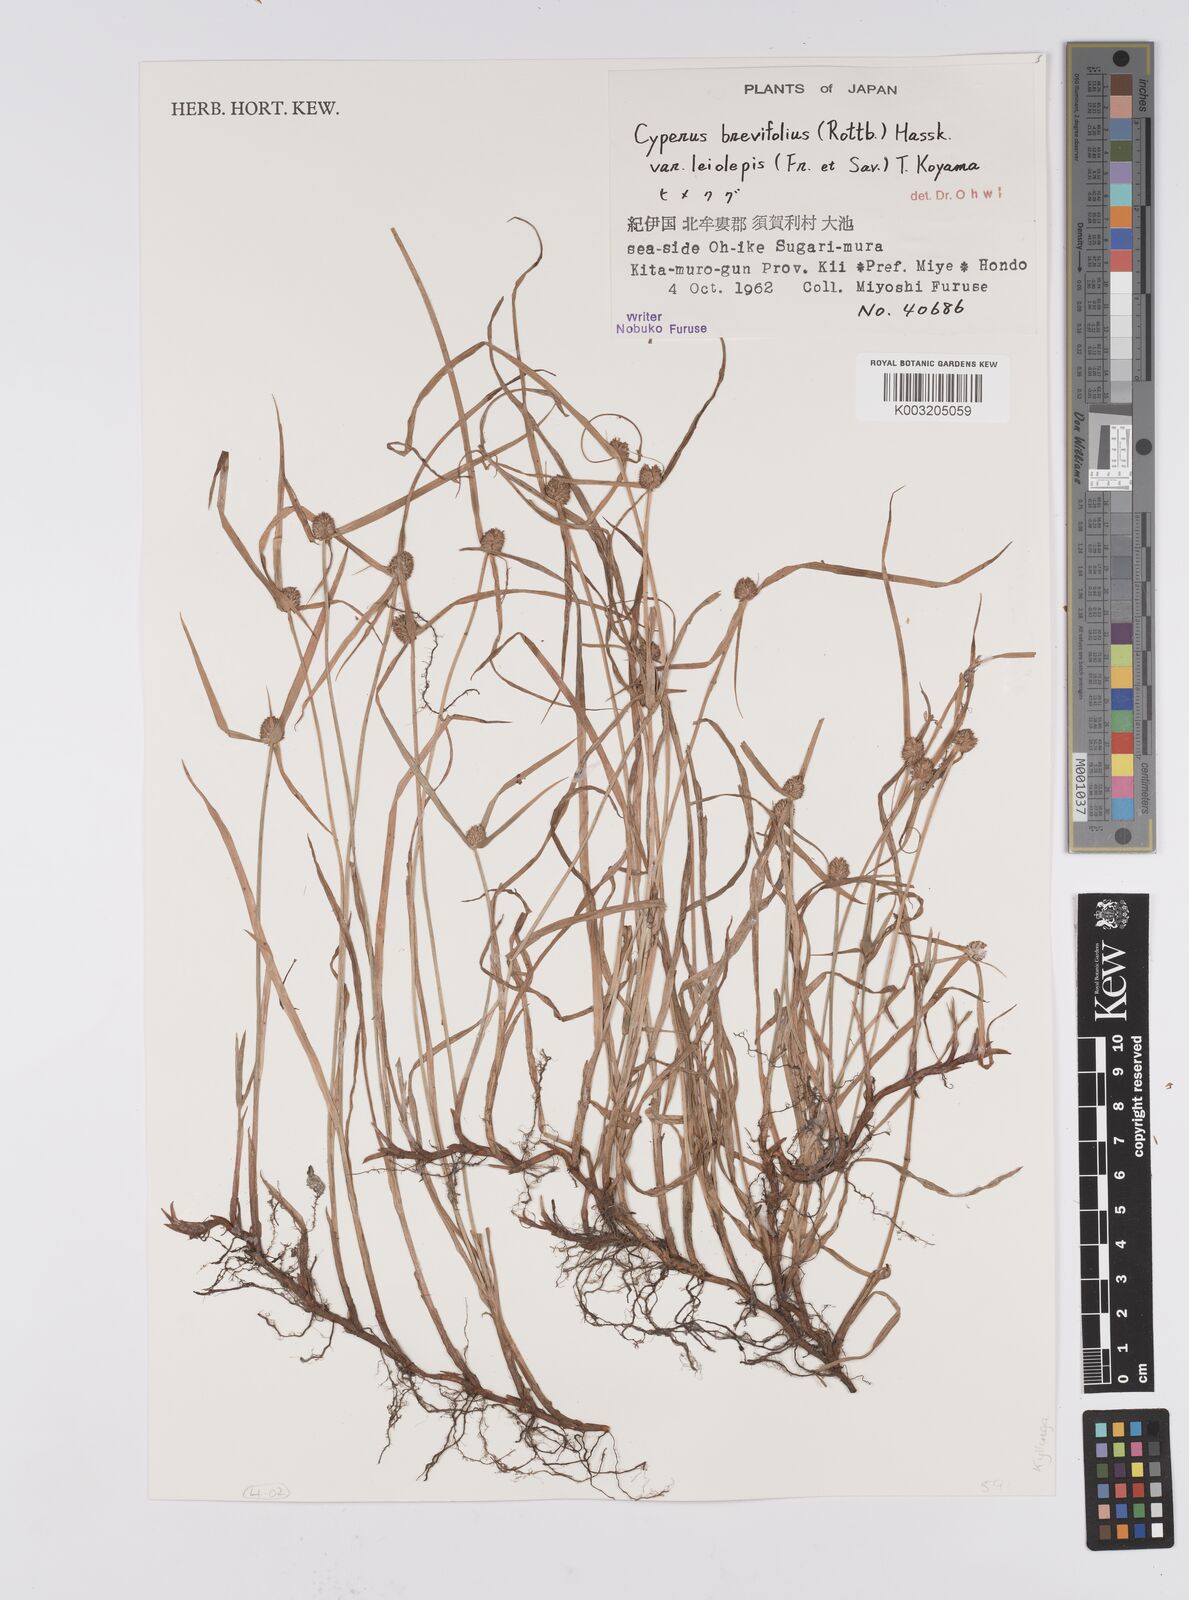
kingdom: Plantae
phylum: Tracheophyta
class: Liliopsida
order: Poales
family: Cyperaceae
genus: Cyperus
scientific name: Cyperus brevifolius
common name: Globe kyllinga
